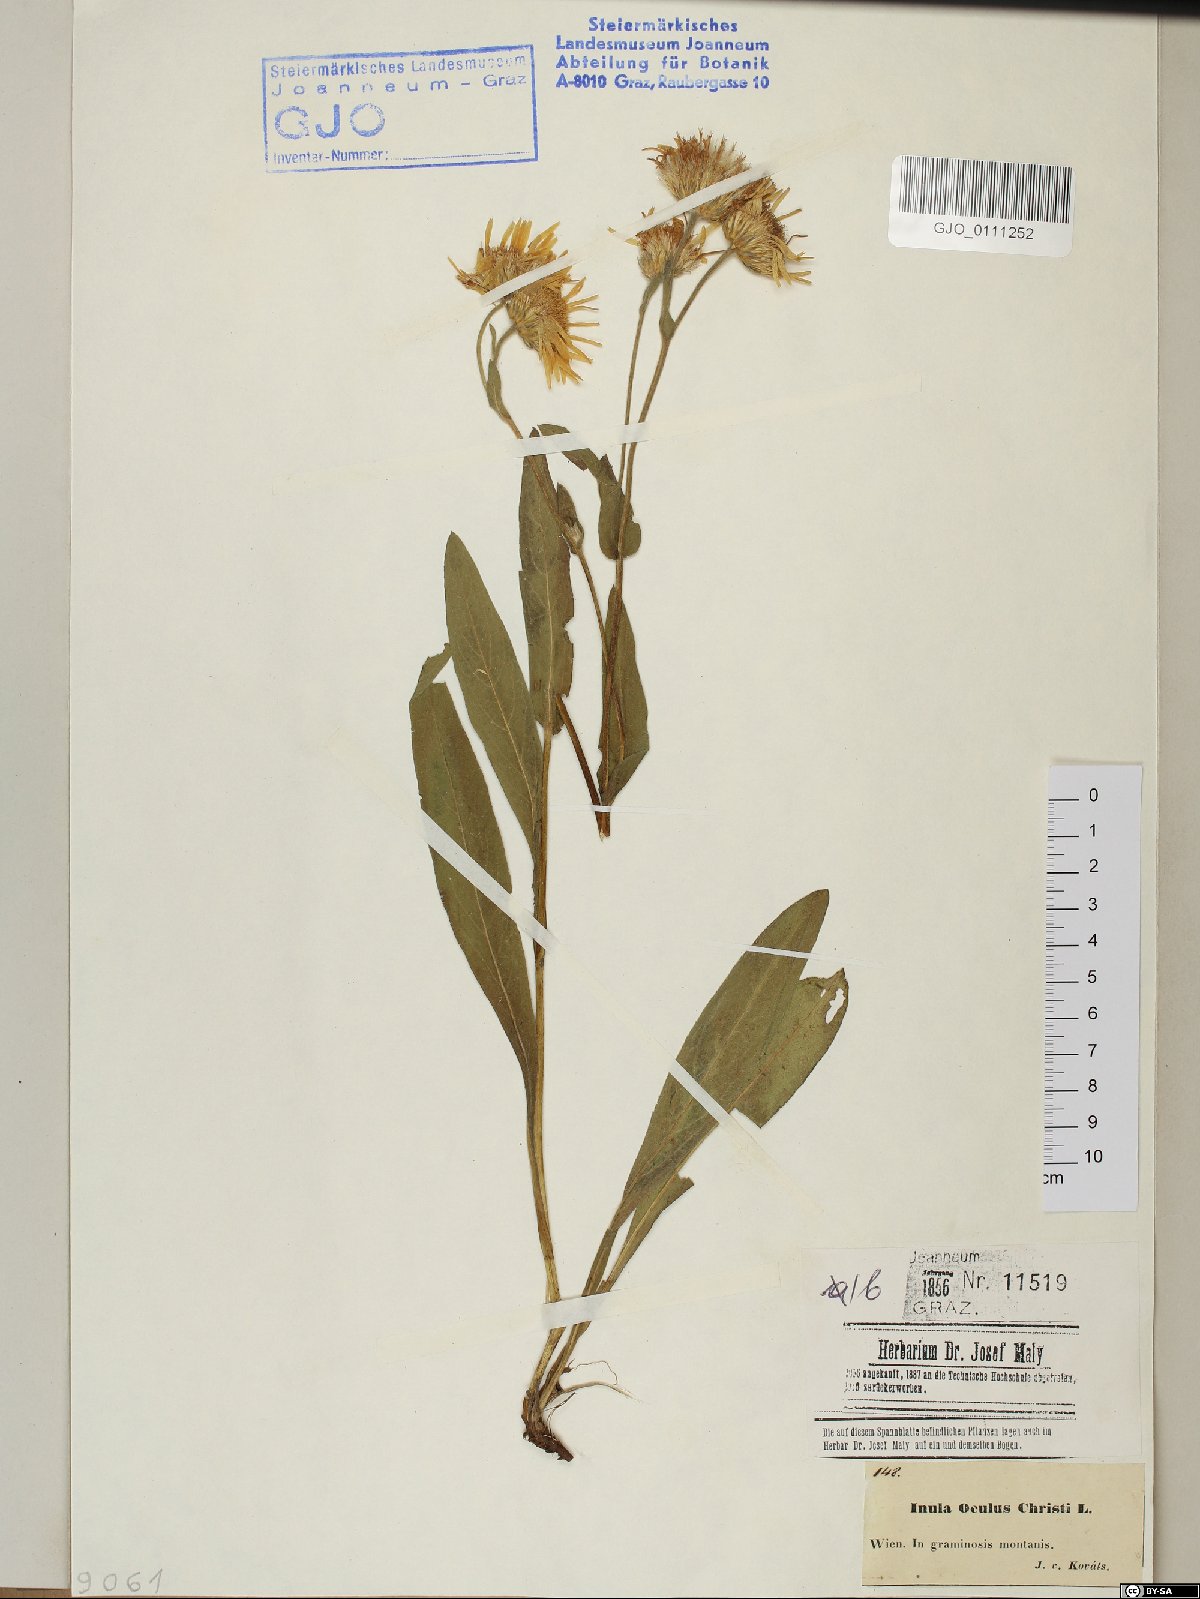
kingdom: Plantae
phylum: Tracheophyta
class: Magnoliopsida
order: Asterales
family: Asteraceae
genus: Pentanema
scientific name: Pentanema ensifolium
